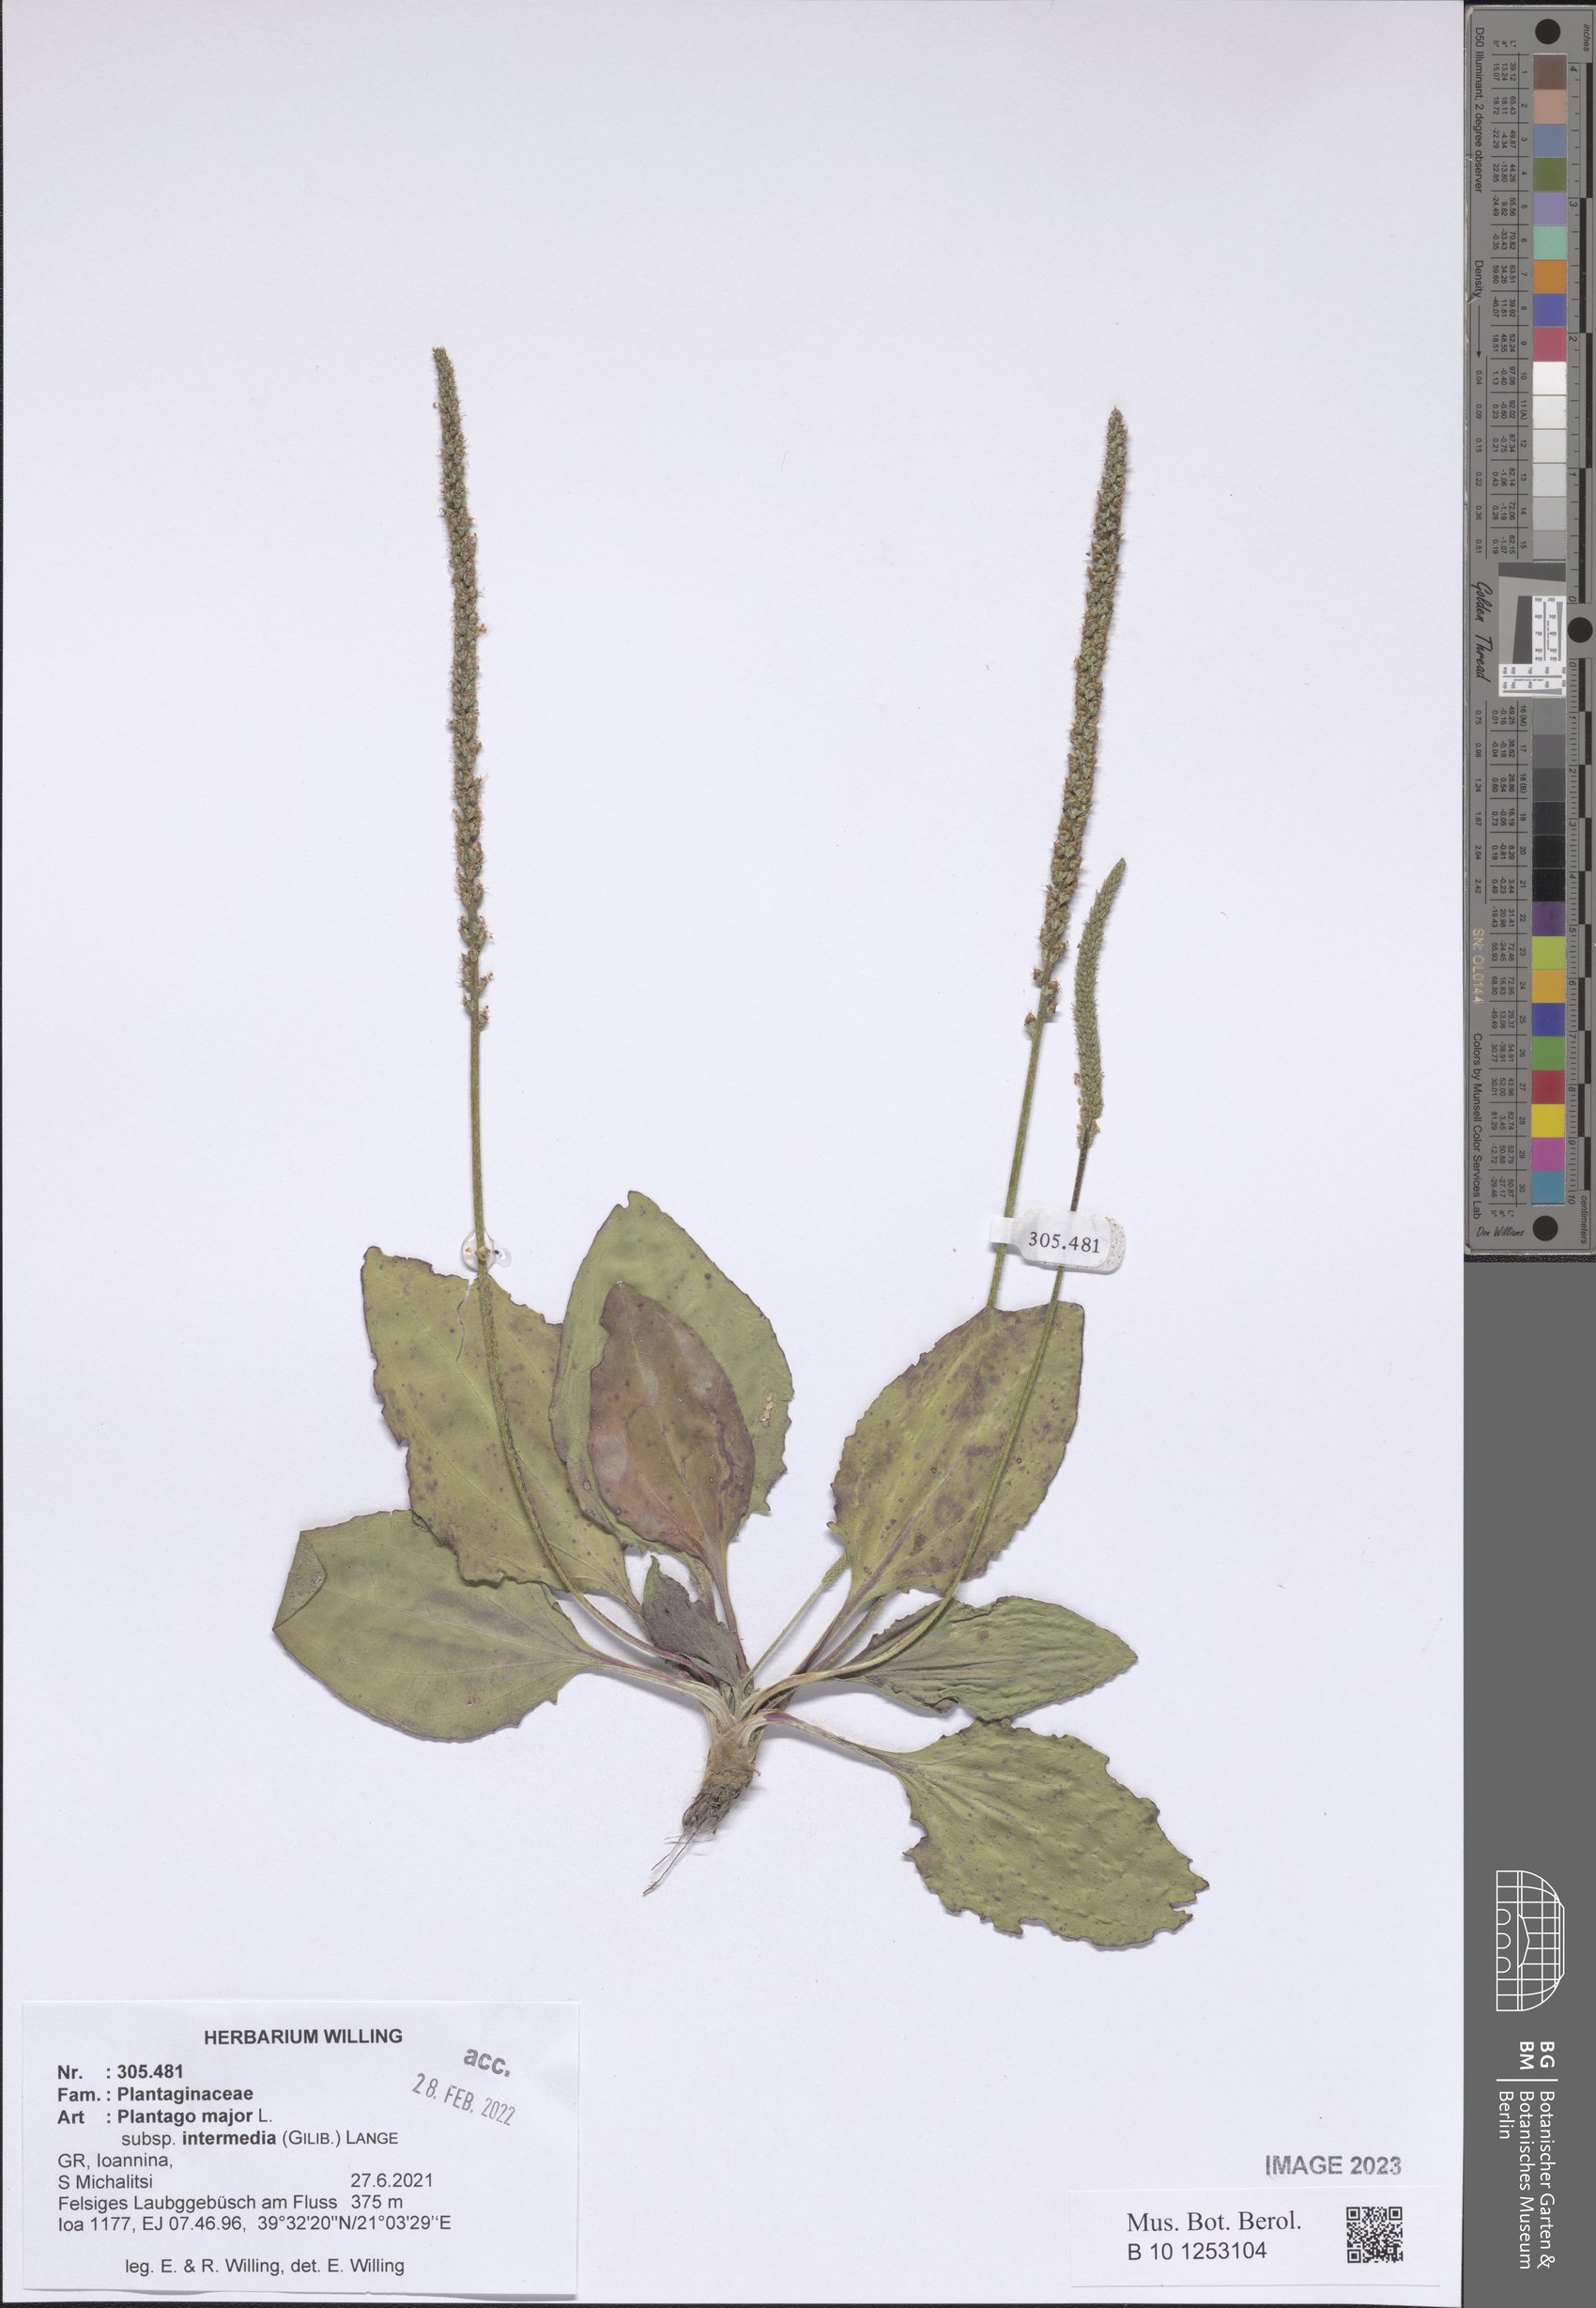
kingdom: Plantae
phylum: Tracheophyta
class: Magnoliopsida
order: Lamiales
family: Plantaginaceae
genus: Plantago
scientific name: Plantago uliginosa
